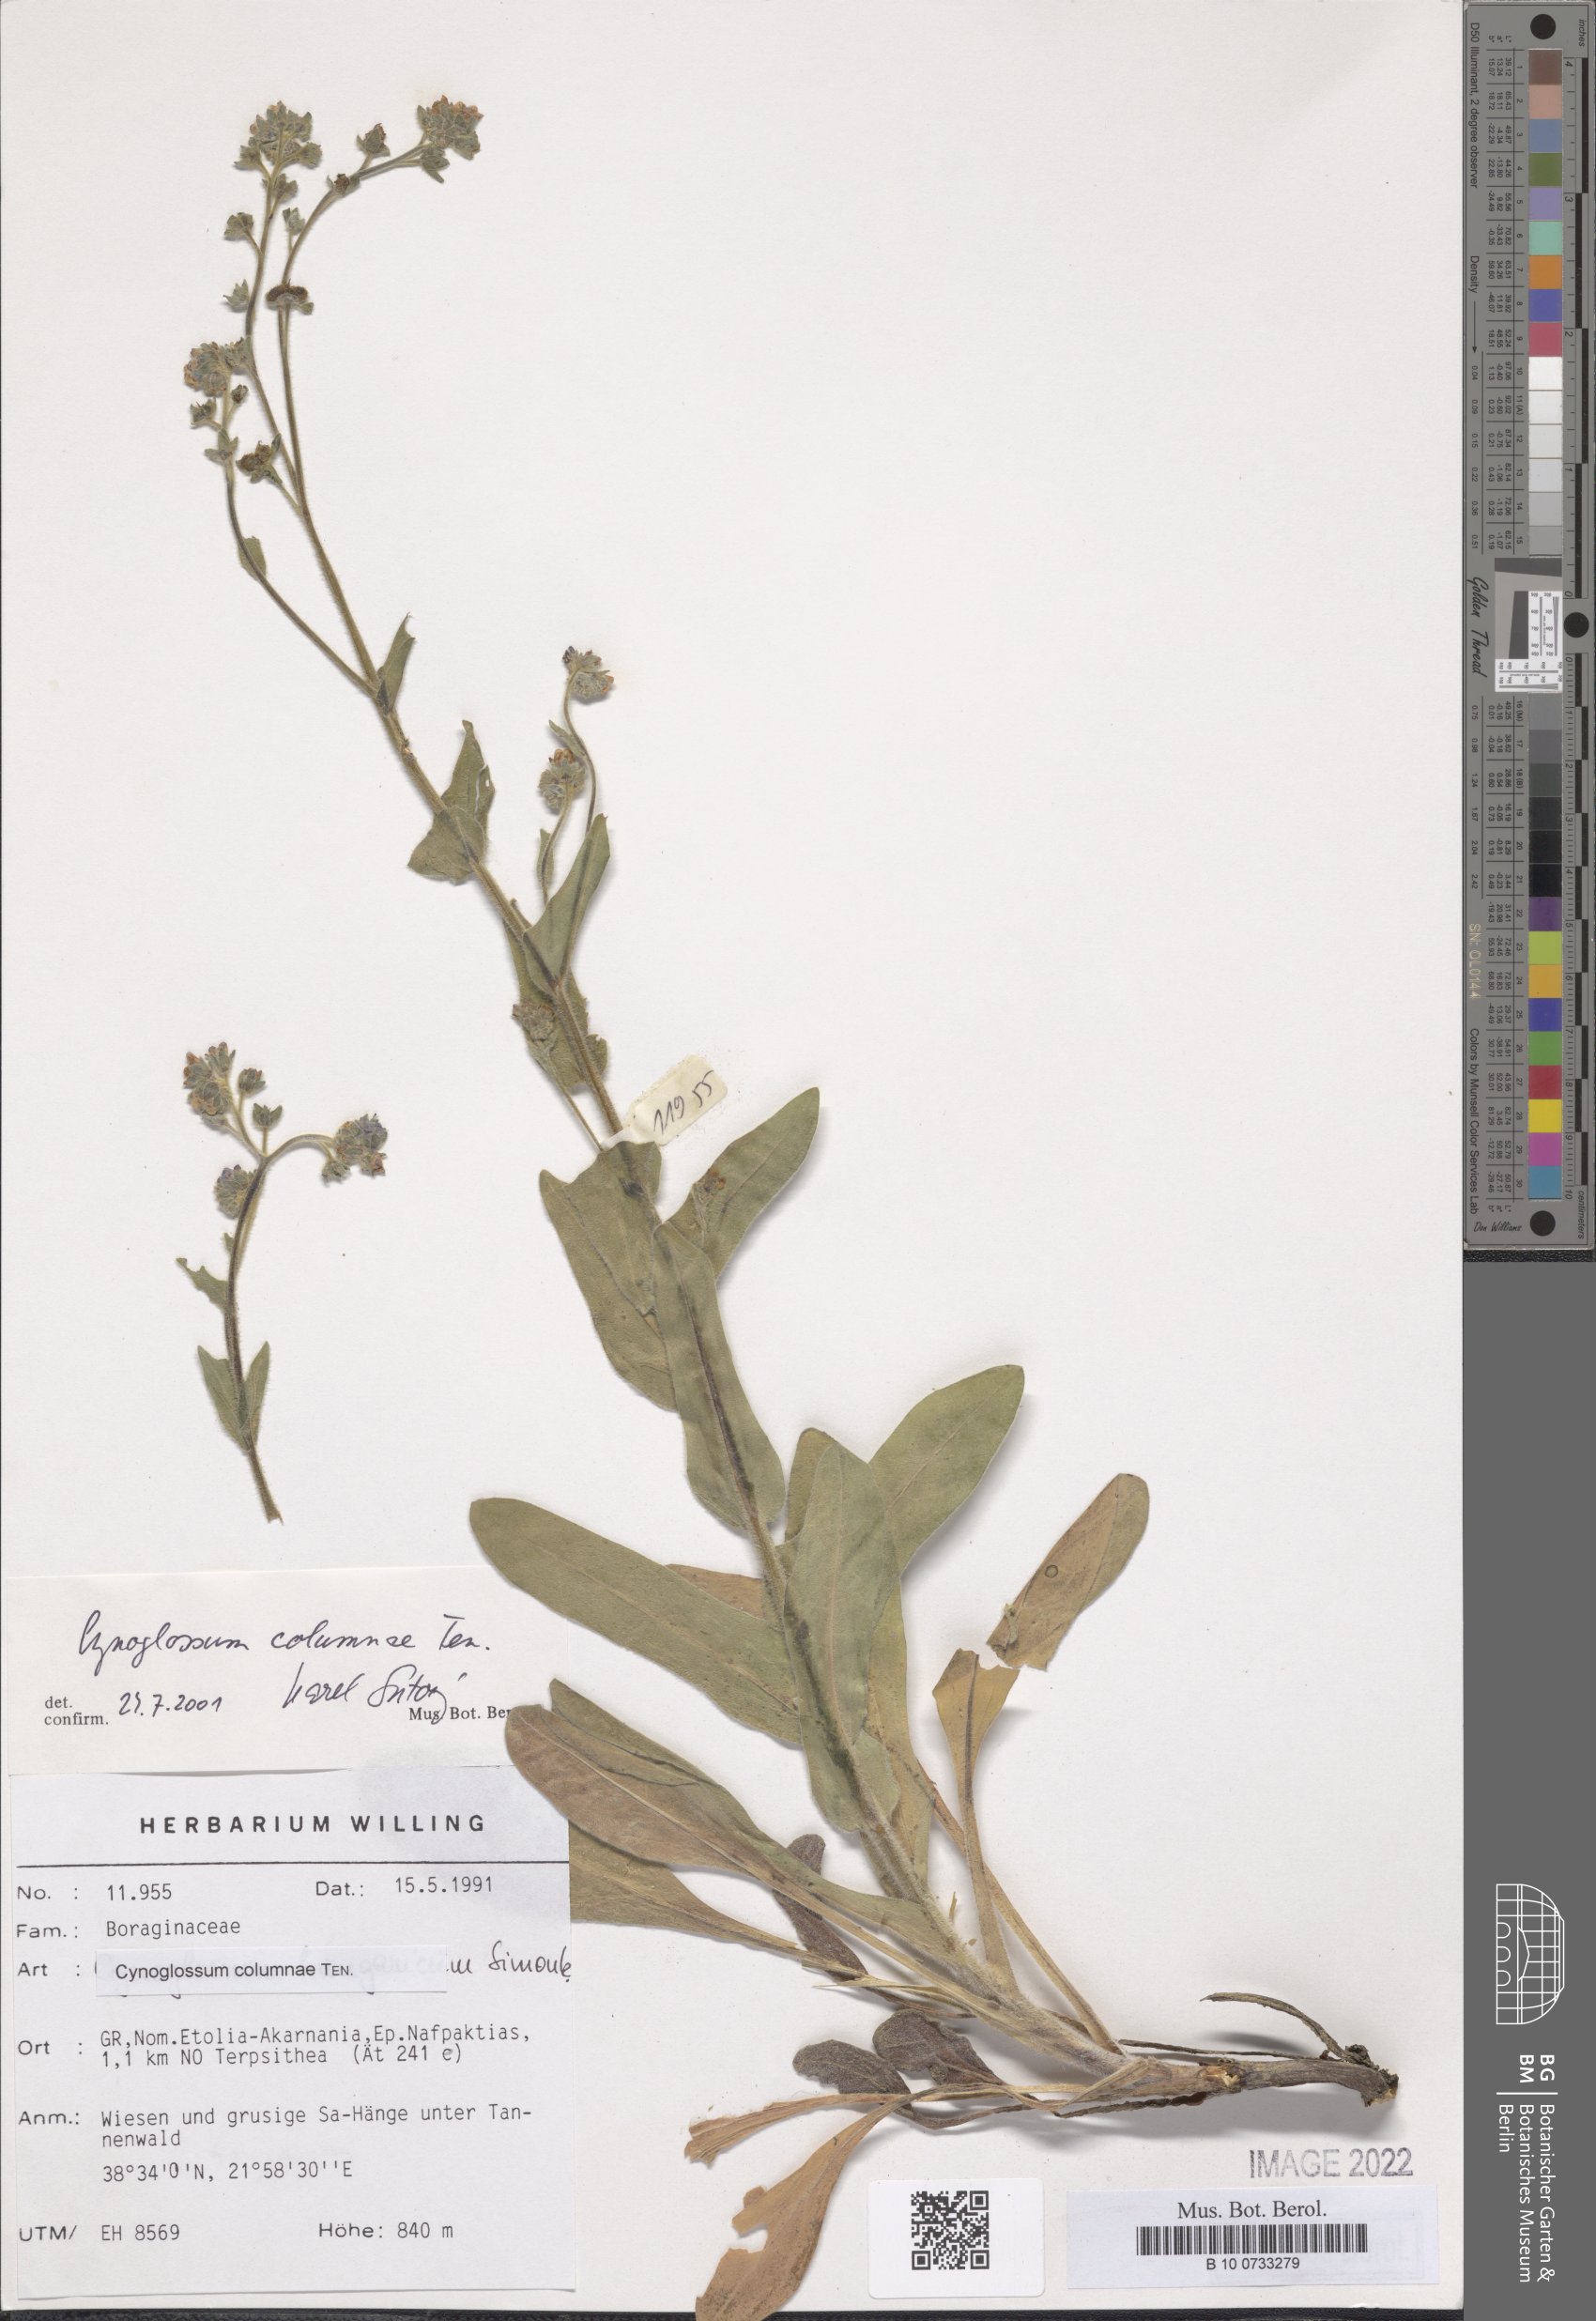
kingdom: Plantae
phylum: Tracheophyta
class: Magnoliopsida
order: Boraginales
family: Boraginaceae
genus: Rindera
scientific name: Rindera columnae
